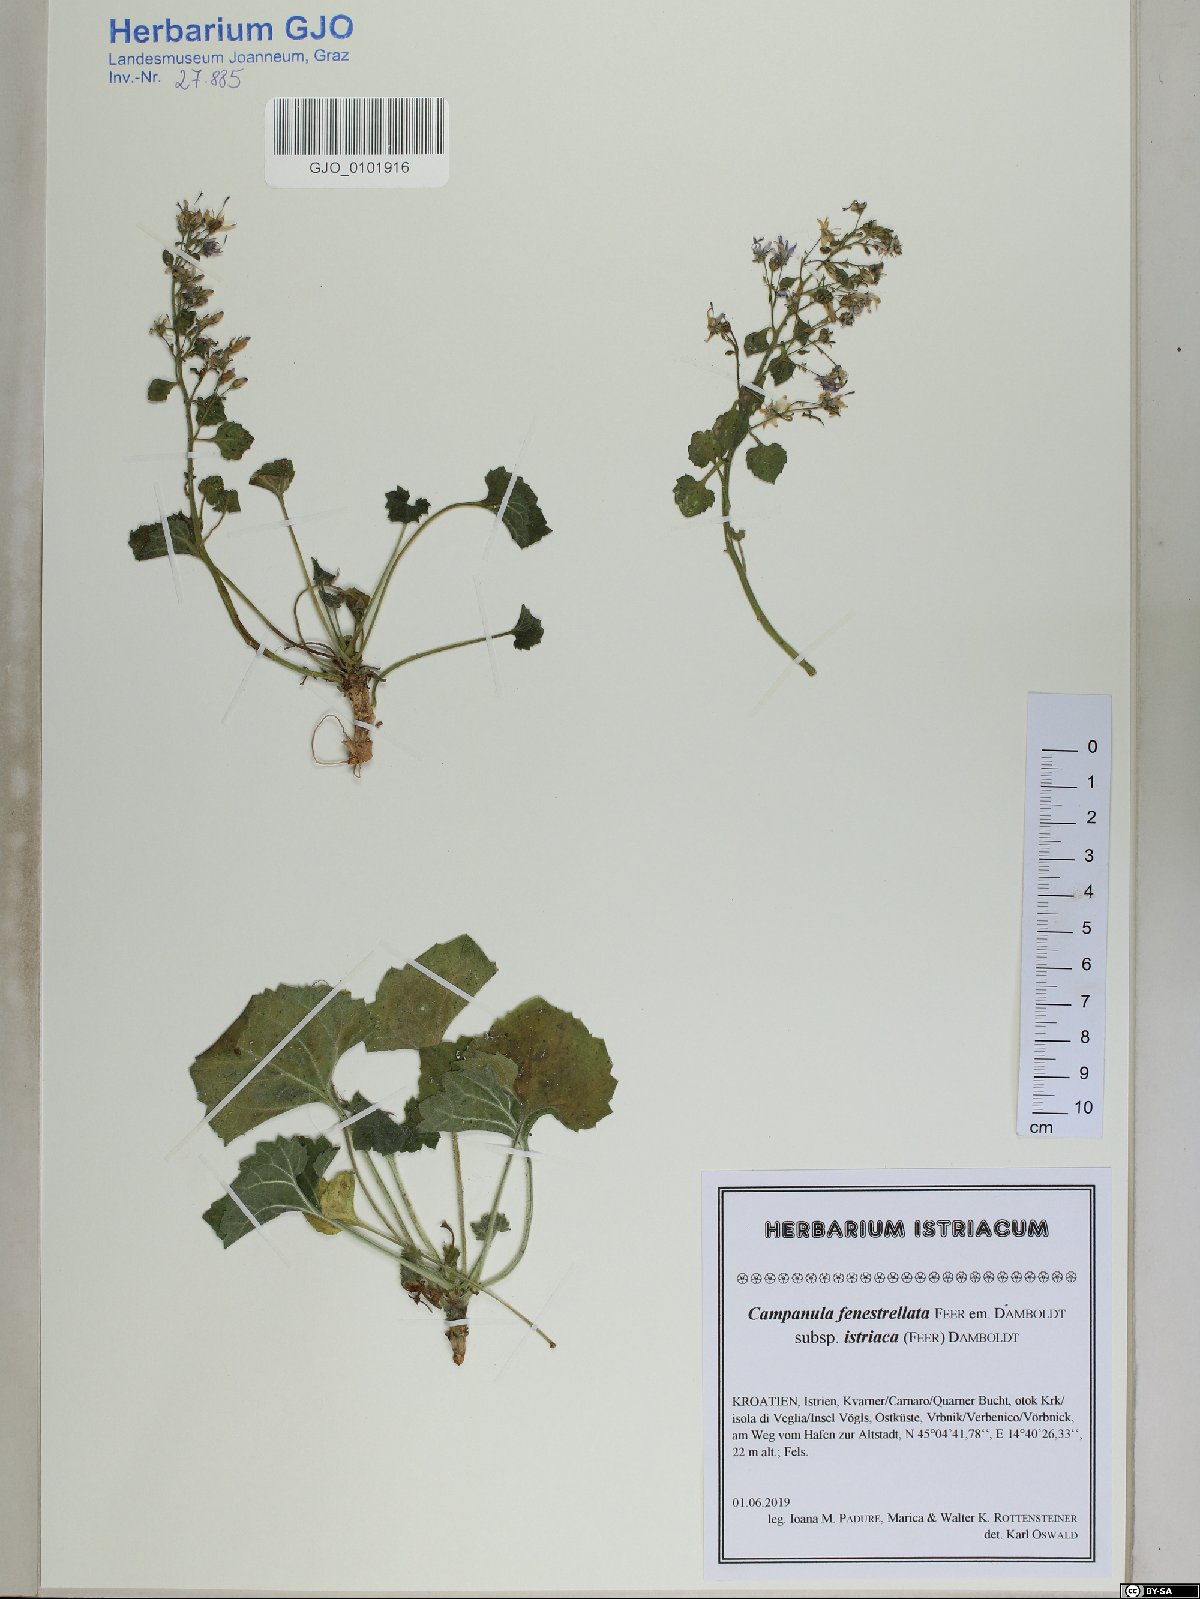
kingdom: Plantae
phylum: Tracheophyta
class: Magnoliopsida
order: Asterales
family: Campanulaceae
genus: Campanula
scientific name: Campanula fenestrellata
